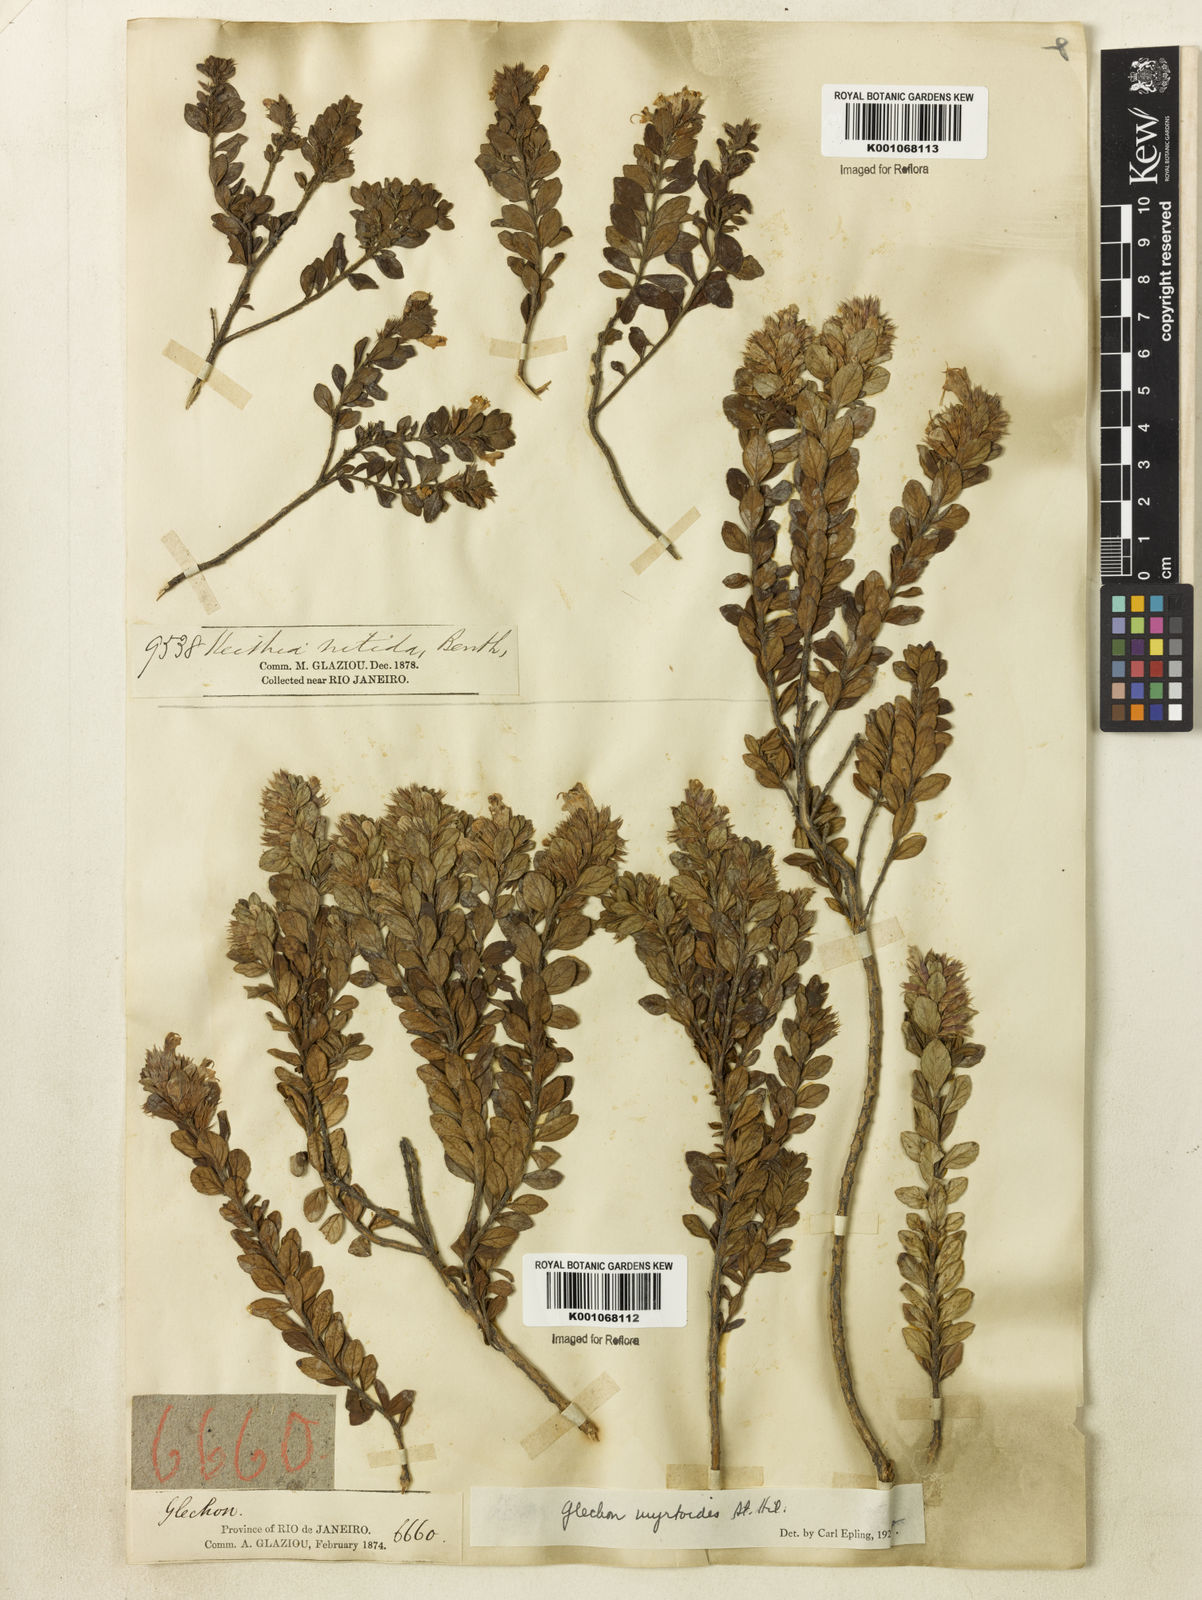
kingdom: Plantae
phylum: Tracheophyta
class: Magnoliopsida
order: Lamiales
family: Lamiaceae
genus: Hesperozygis
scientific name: Hesperozygis myrtoides
